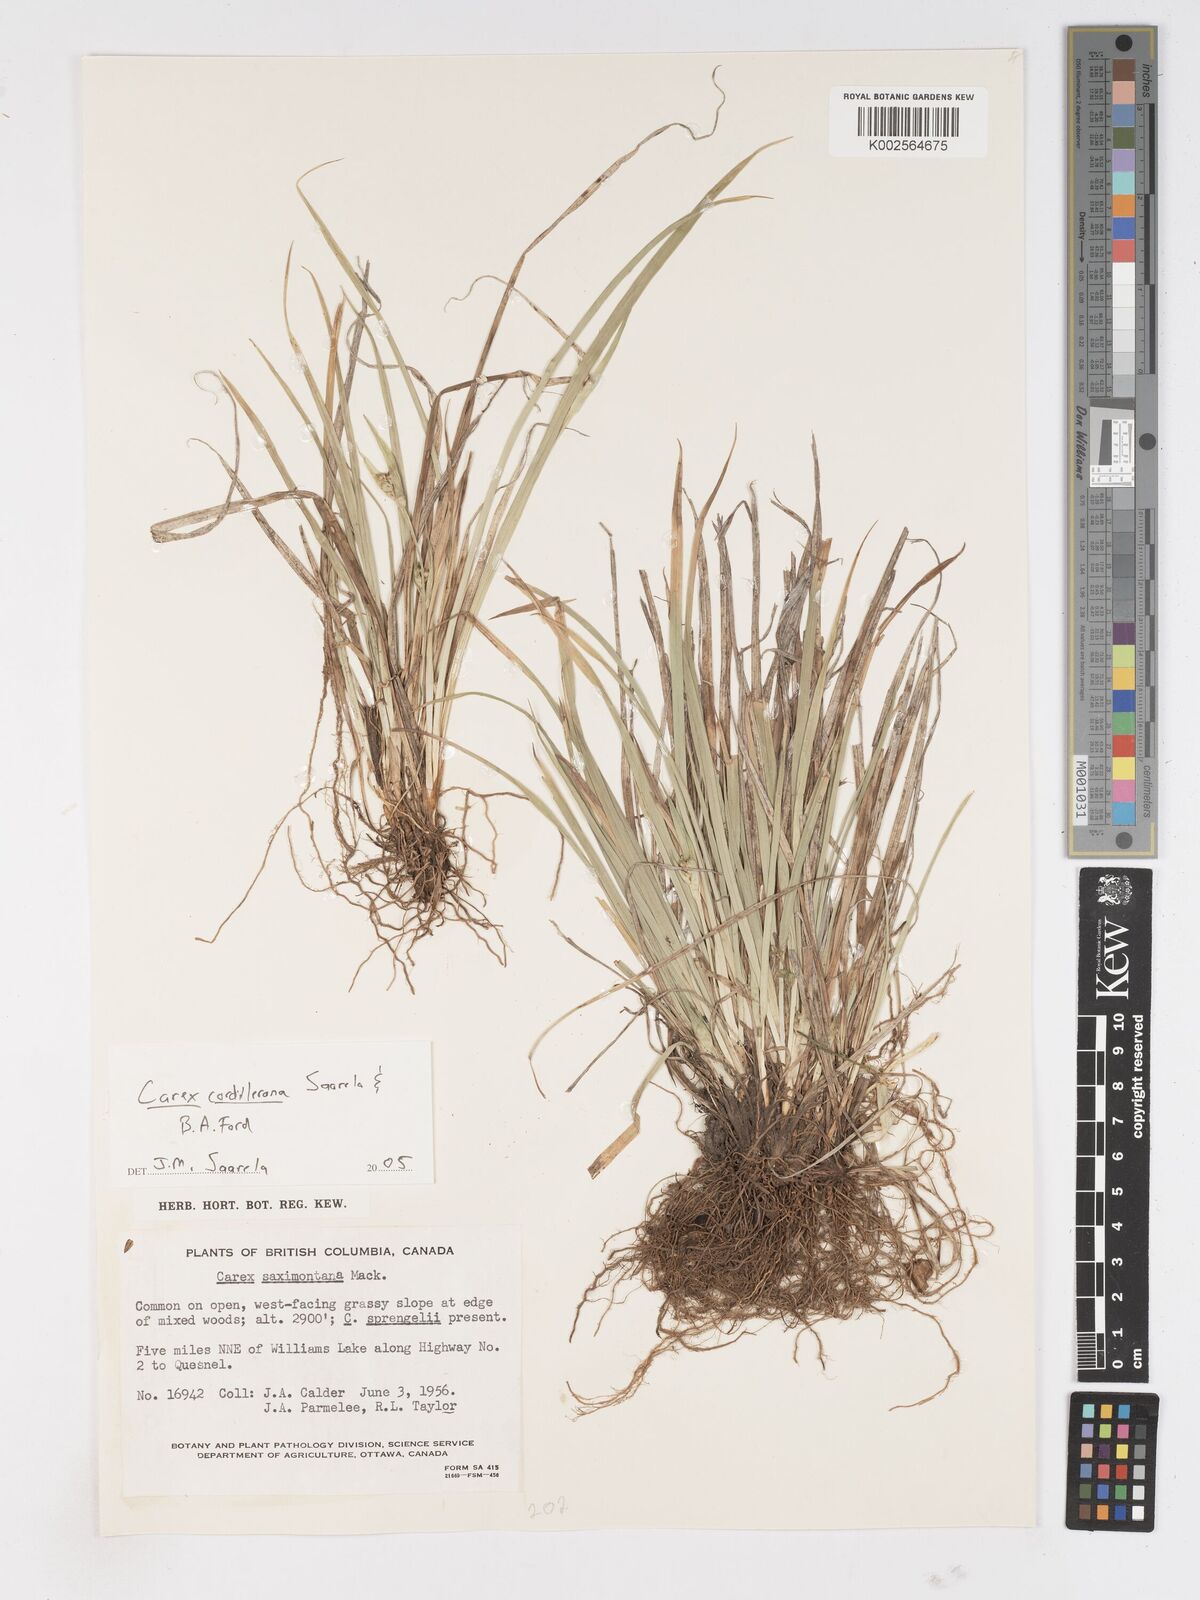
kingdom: Plantae
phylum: Tracheophyta
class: Liliopsida
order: Poales
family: Cyperaceae
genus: Carex
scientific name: Carex cordillerana
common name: Cordilleran sedge
